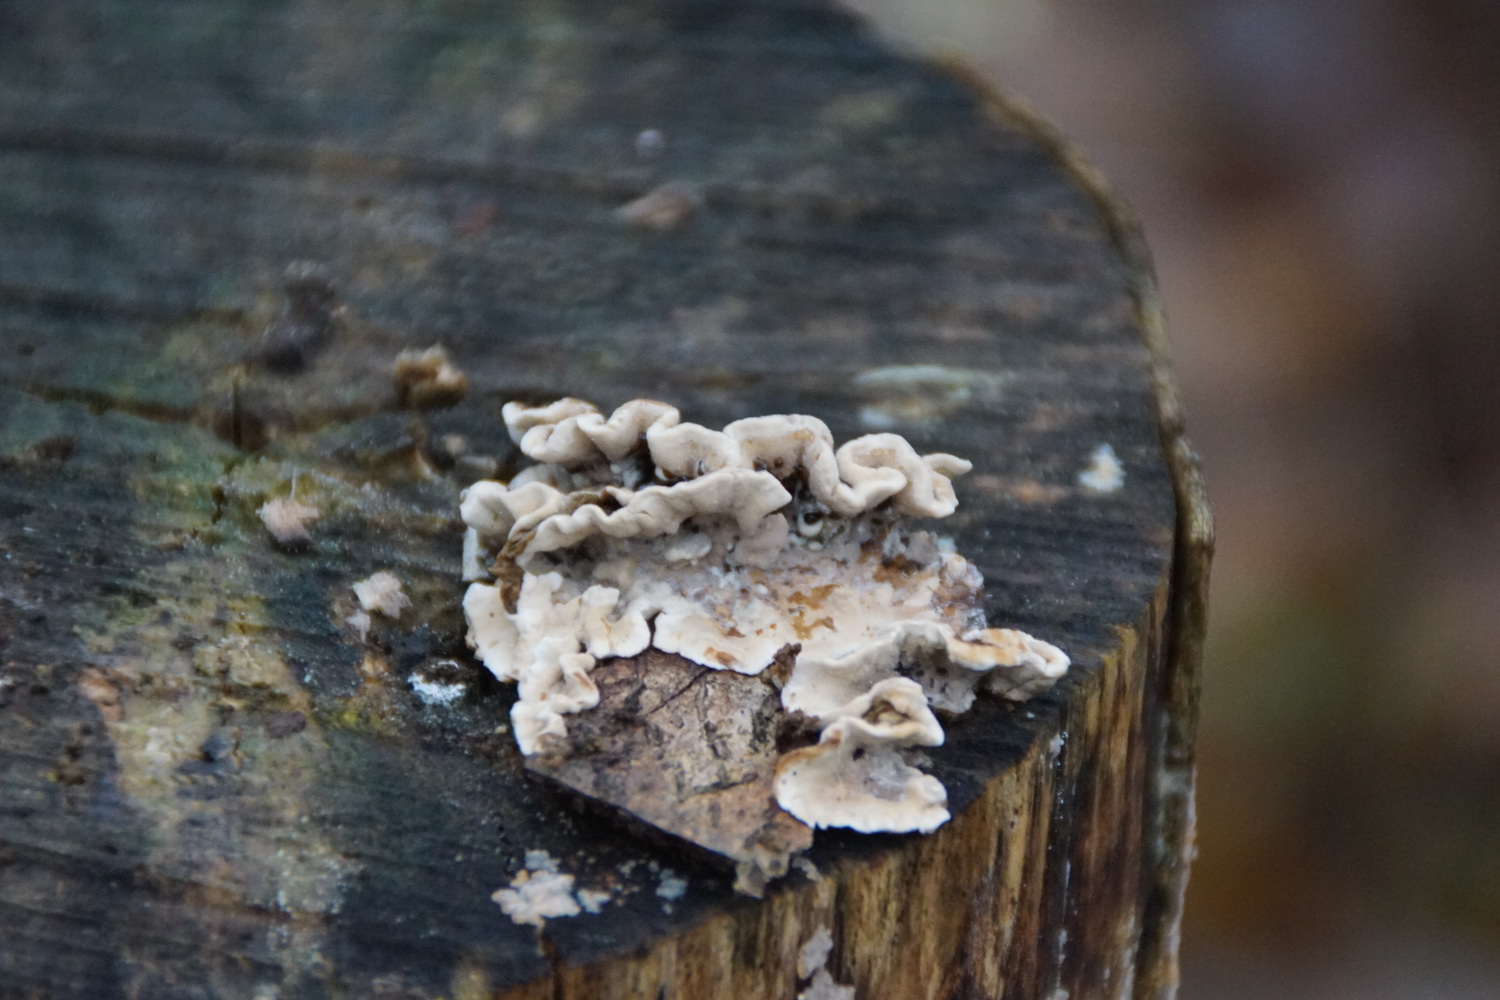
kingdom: Fungi
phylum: Basidiomycota
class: Agaricomycetes
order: Russulales
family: Hericiaceae
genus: Laxitextum
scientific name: Laxitextum bicolor
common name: tvefarvet filtskind
